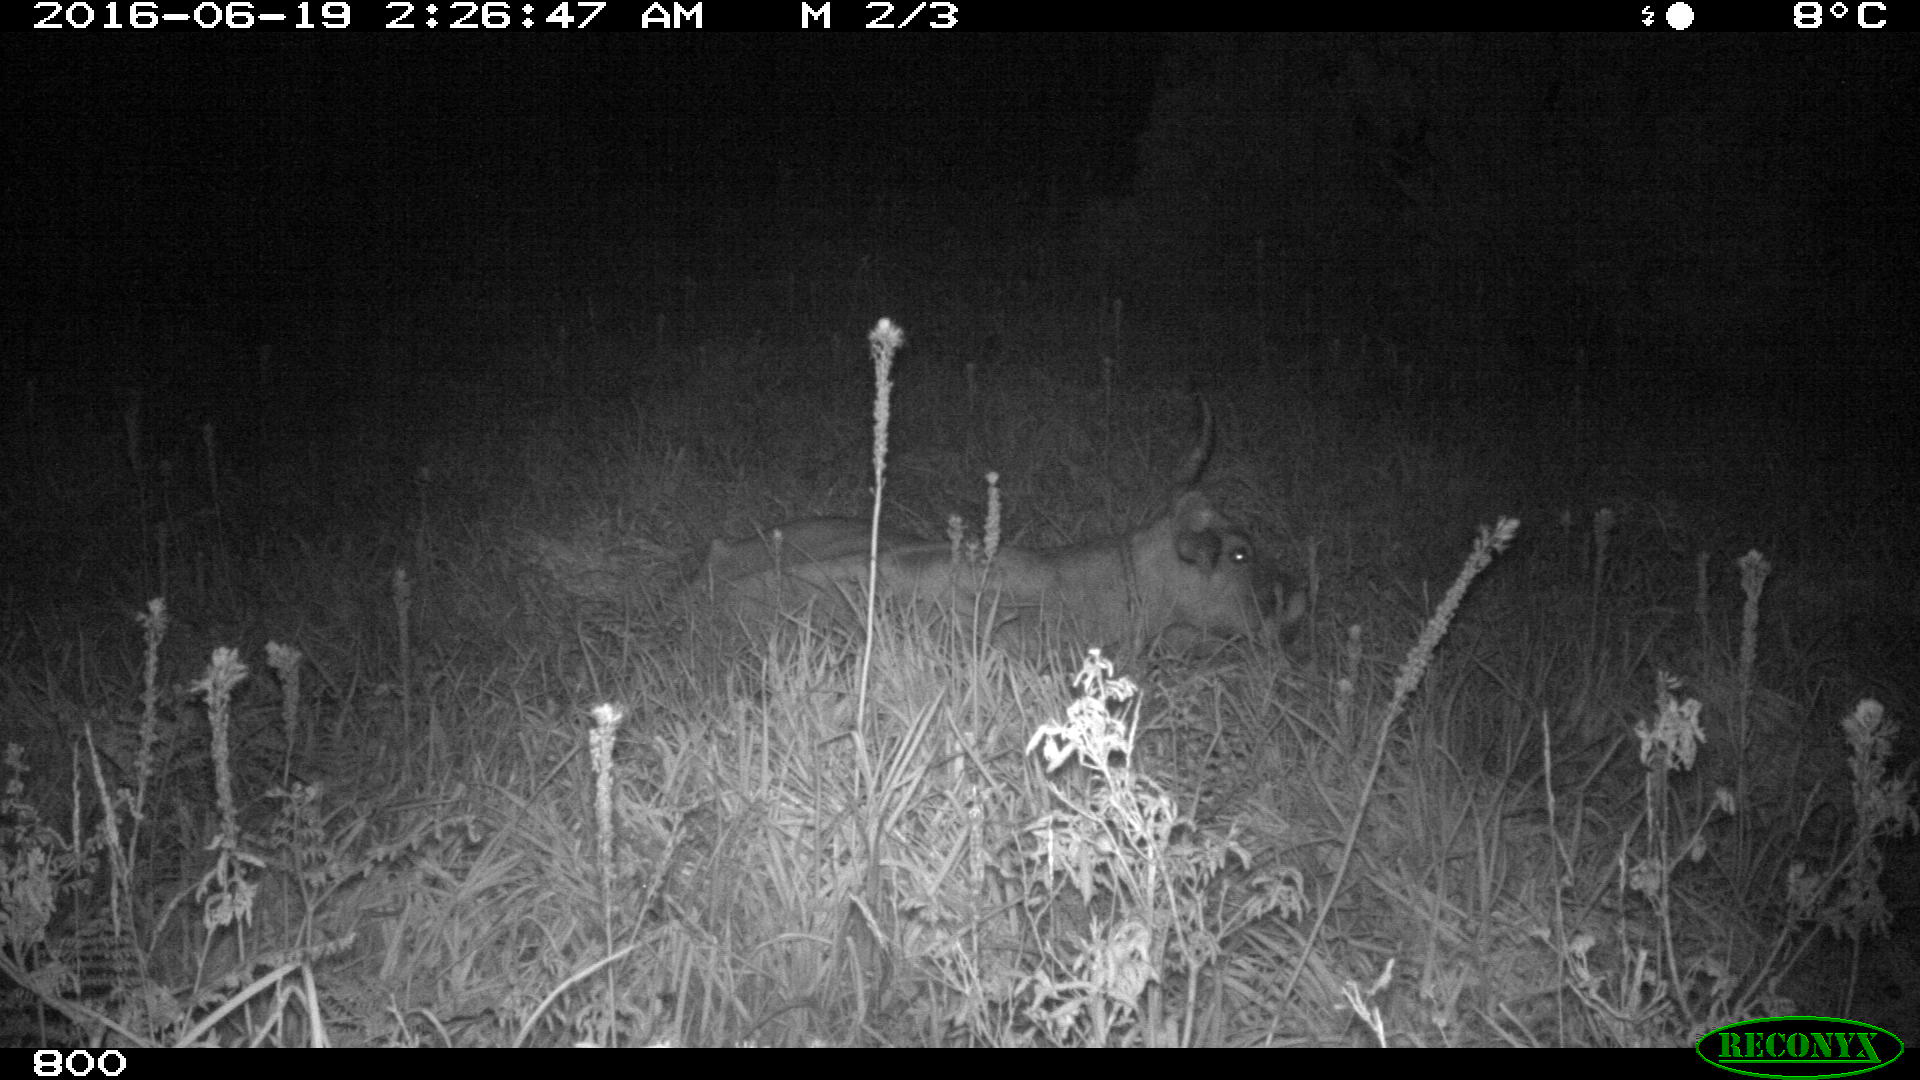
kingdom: Animalia
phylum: Chordata
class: Mammalia
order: Artiodactyla
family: Bovidae
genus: Bos
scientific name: Bos taurus
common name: Domesticated cattle
